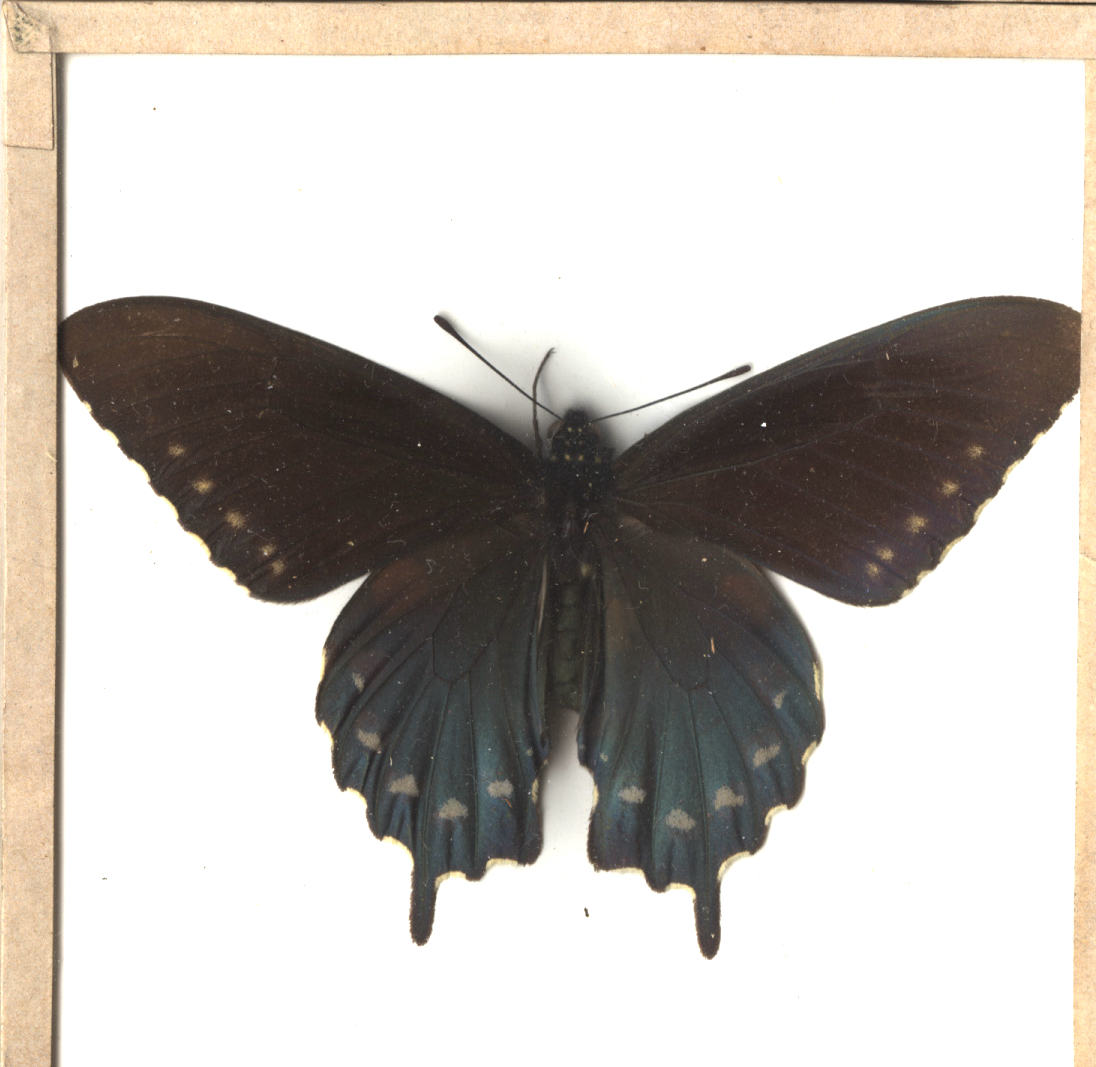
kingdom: Animalia
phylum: Arthropoda
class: Insecta
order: Lepidoptera
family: Papilionidae
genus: Battus
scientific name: Battus philenor
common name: Pipevine Swallowtail
